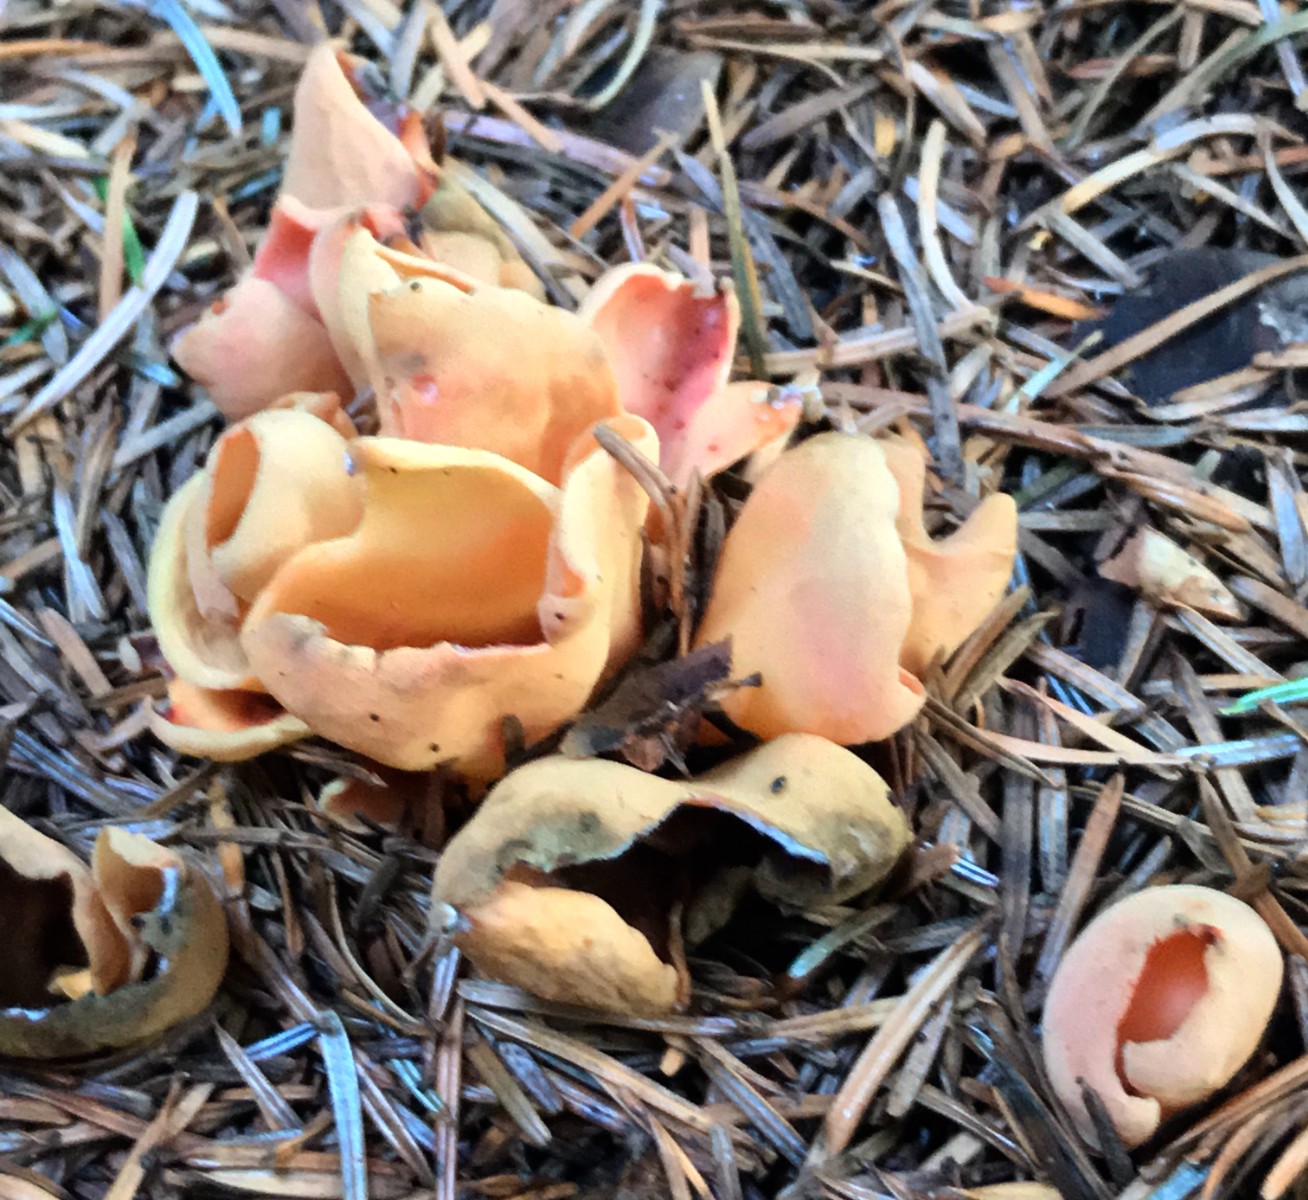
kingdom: Fungi
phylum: Ascomycota
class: Pezizomycetes
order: Pezizales
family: Otideaceae
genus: Otidea
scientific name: Otidea onotica
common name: æsel-ørebæger
